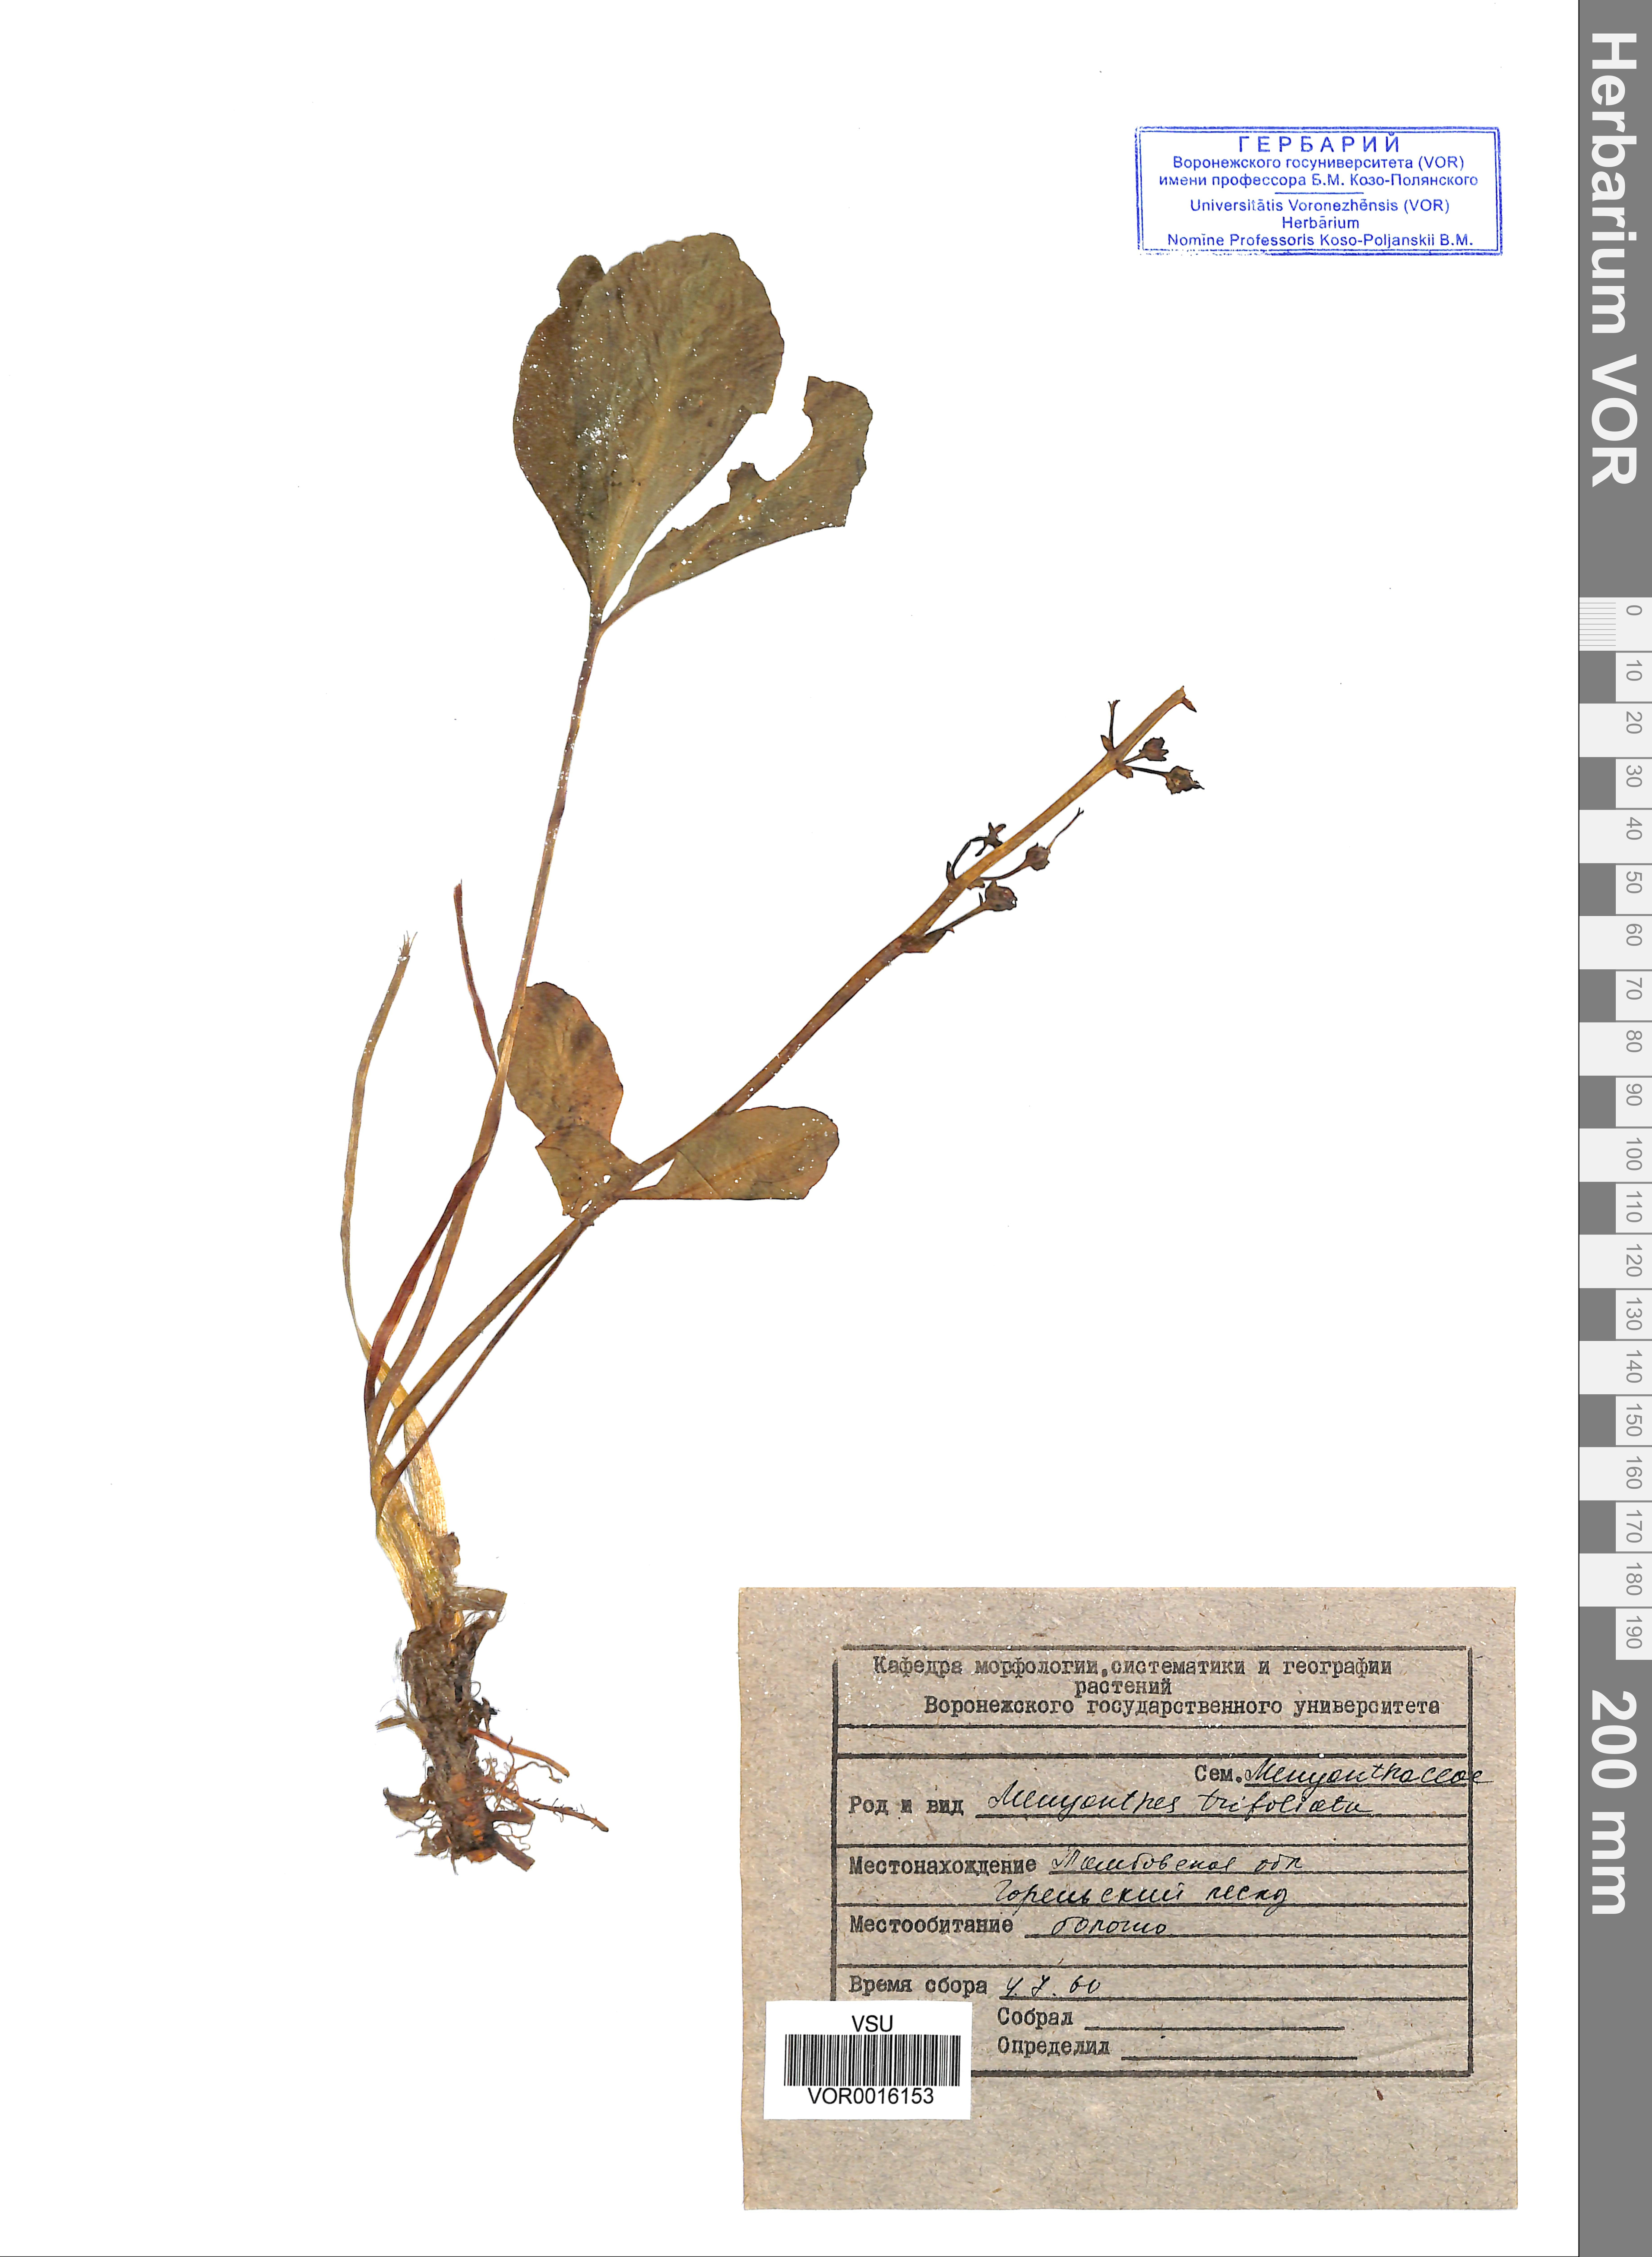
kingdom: Plantae
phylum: Tracheophyta
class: Magnoliopsida
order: Asterales
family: Menyanthaceae
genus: Menyanthes
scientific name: Menyanthes trifoliata
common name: Bogbean
